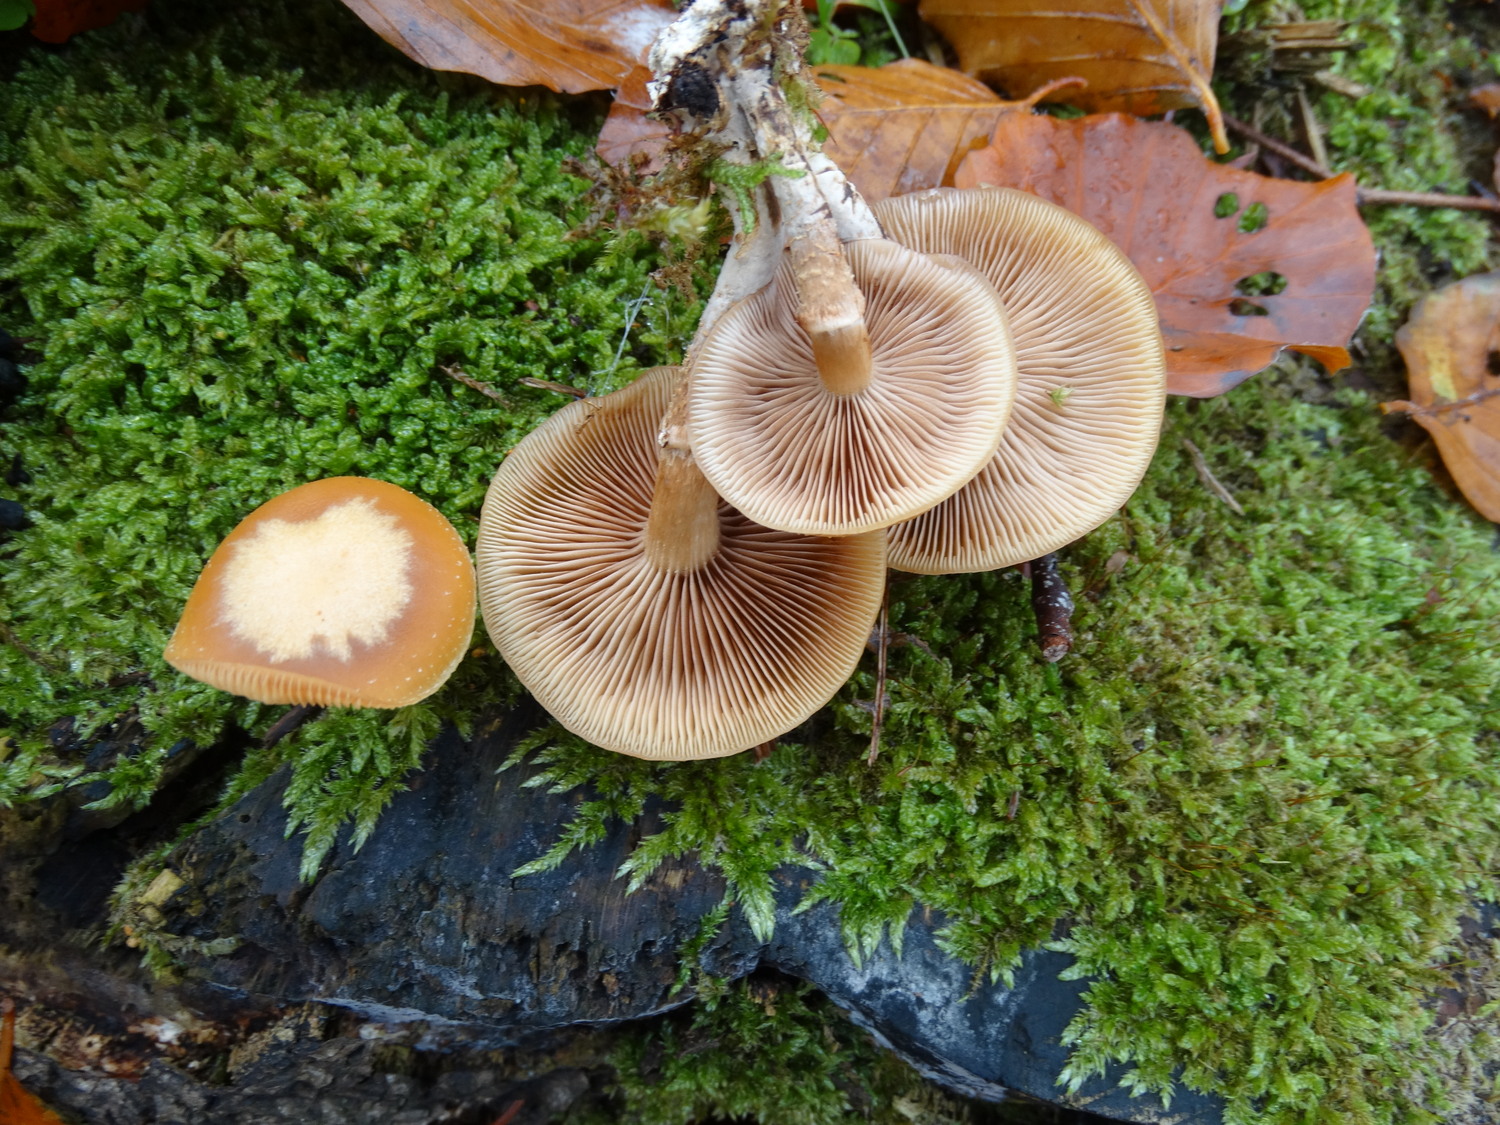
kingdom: Fungi
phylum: Basidiomycota
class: Agaricomycetes
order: Agaricales
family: Strophariaceae
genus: Kuehneromyces
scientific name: Kuehneromyces mutabilis
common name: foranderlig skælhat
